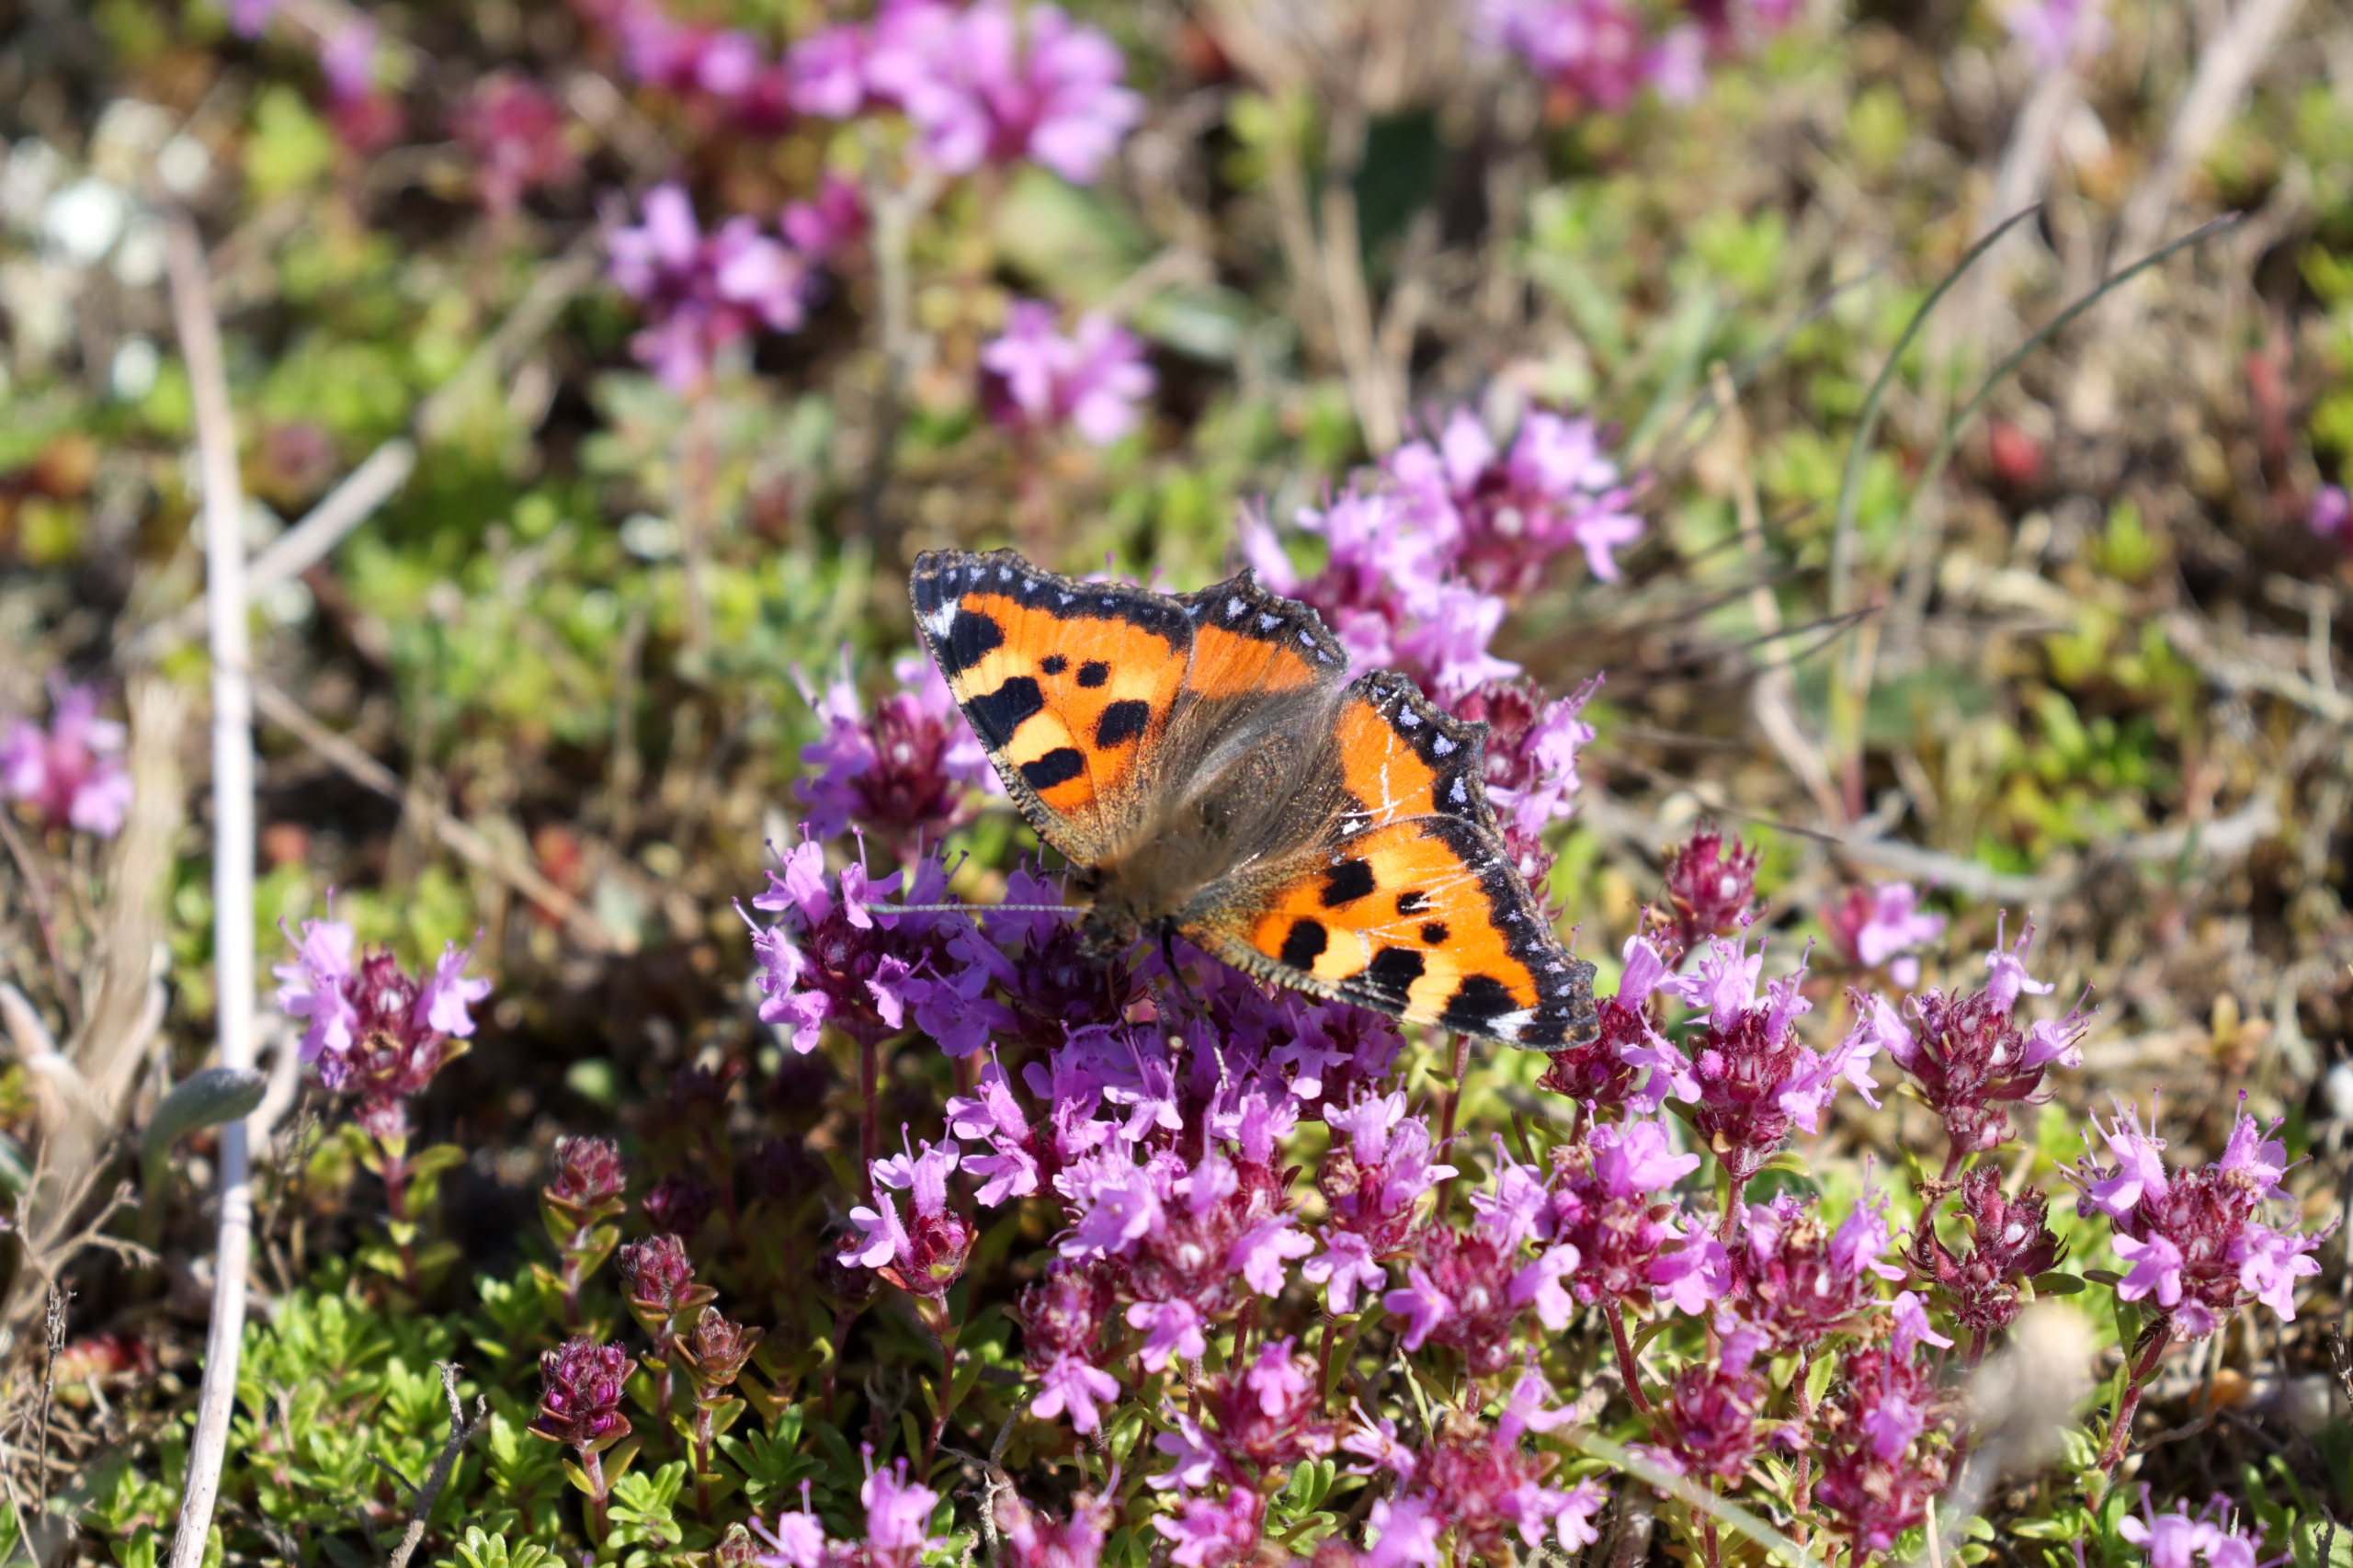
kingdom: Animalia
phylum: Arthropoda
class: Insecta
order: Lepidoptera
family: Nymphalidae
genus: Aglais
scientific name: Aglais urticae
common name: Nældens takvinge
